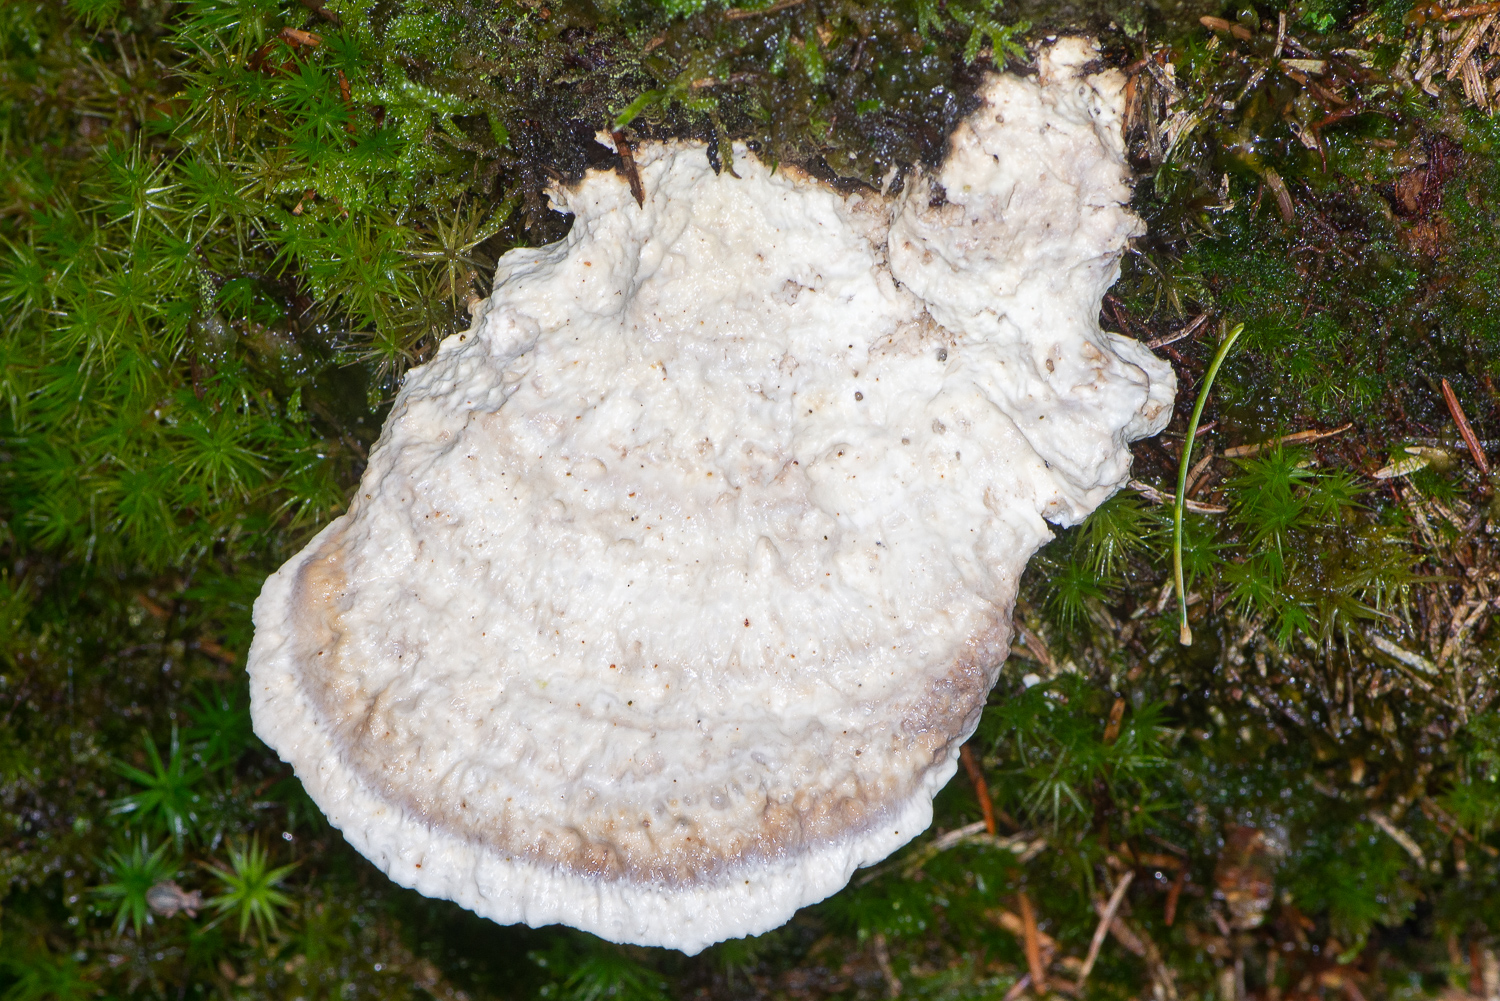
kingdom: Fungi
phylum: Basidiomycota
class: Agaricomycetes
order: Polyporales
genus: Calcipostia
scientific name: Calcipostia guttulata
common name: dråbe-kødporesvamp
